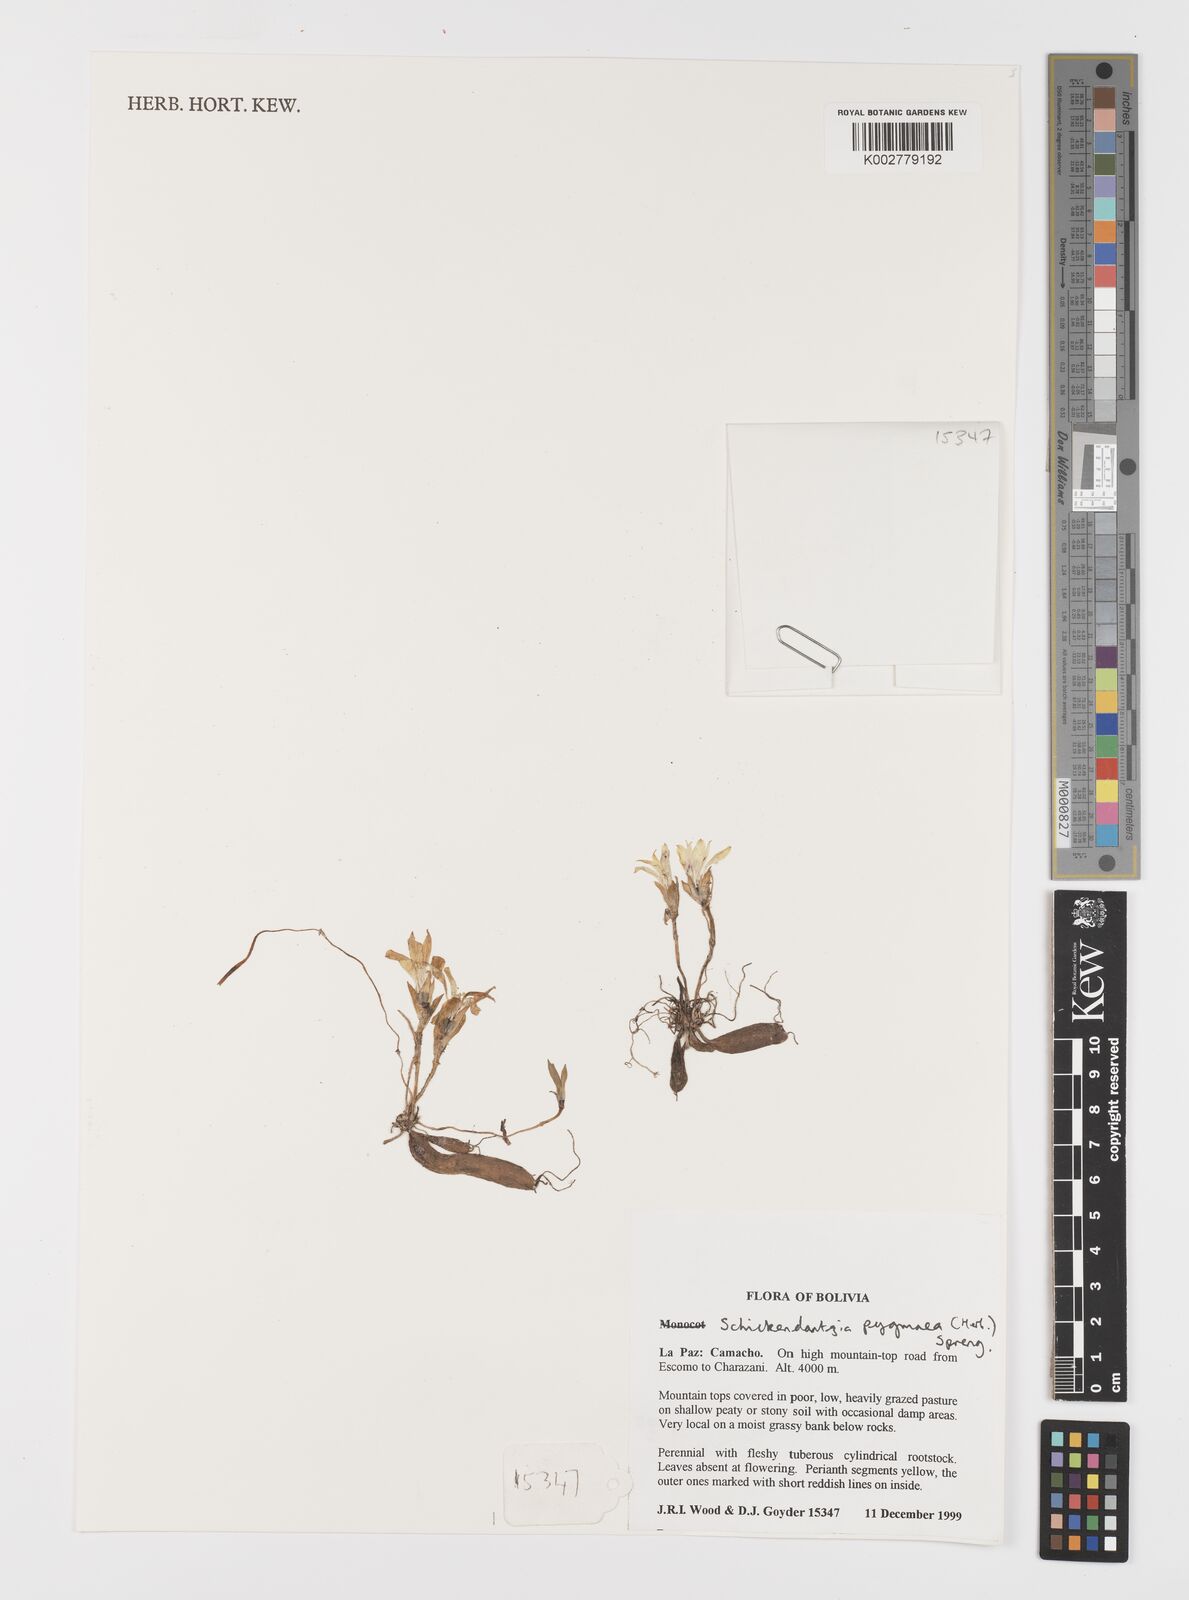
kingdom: Plantae
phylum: Tracheophyta
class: Liliopsida
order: Liliales
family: Alstroemeriaceae
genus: Alstroemeria
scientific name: Alstroemeria pygmaea
